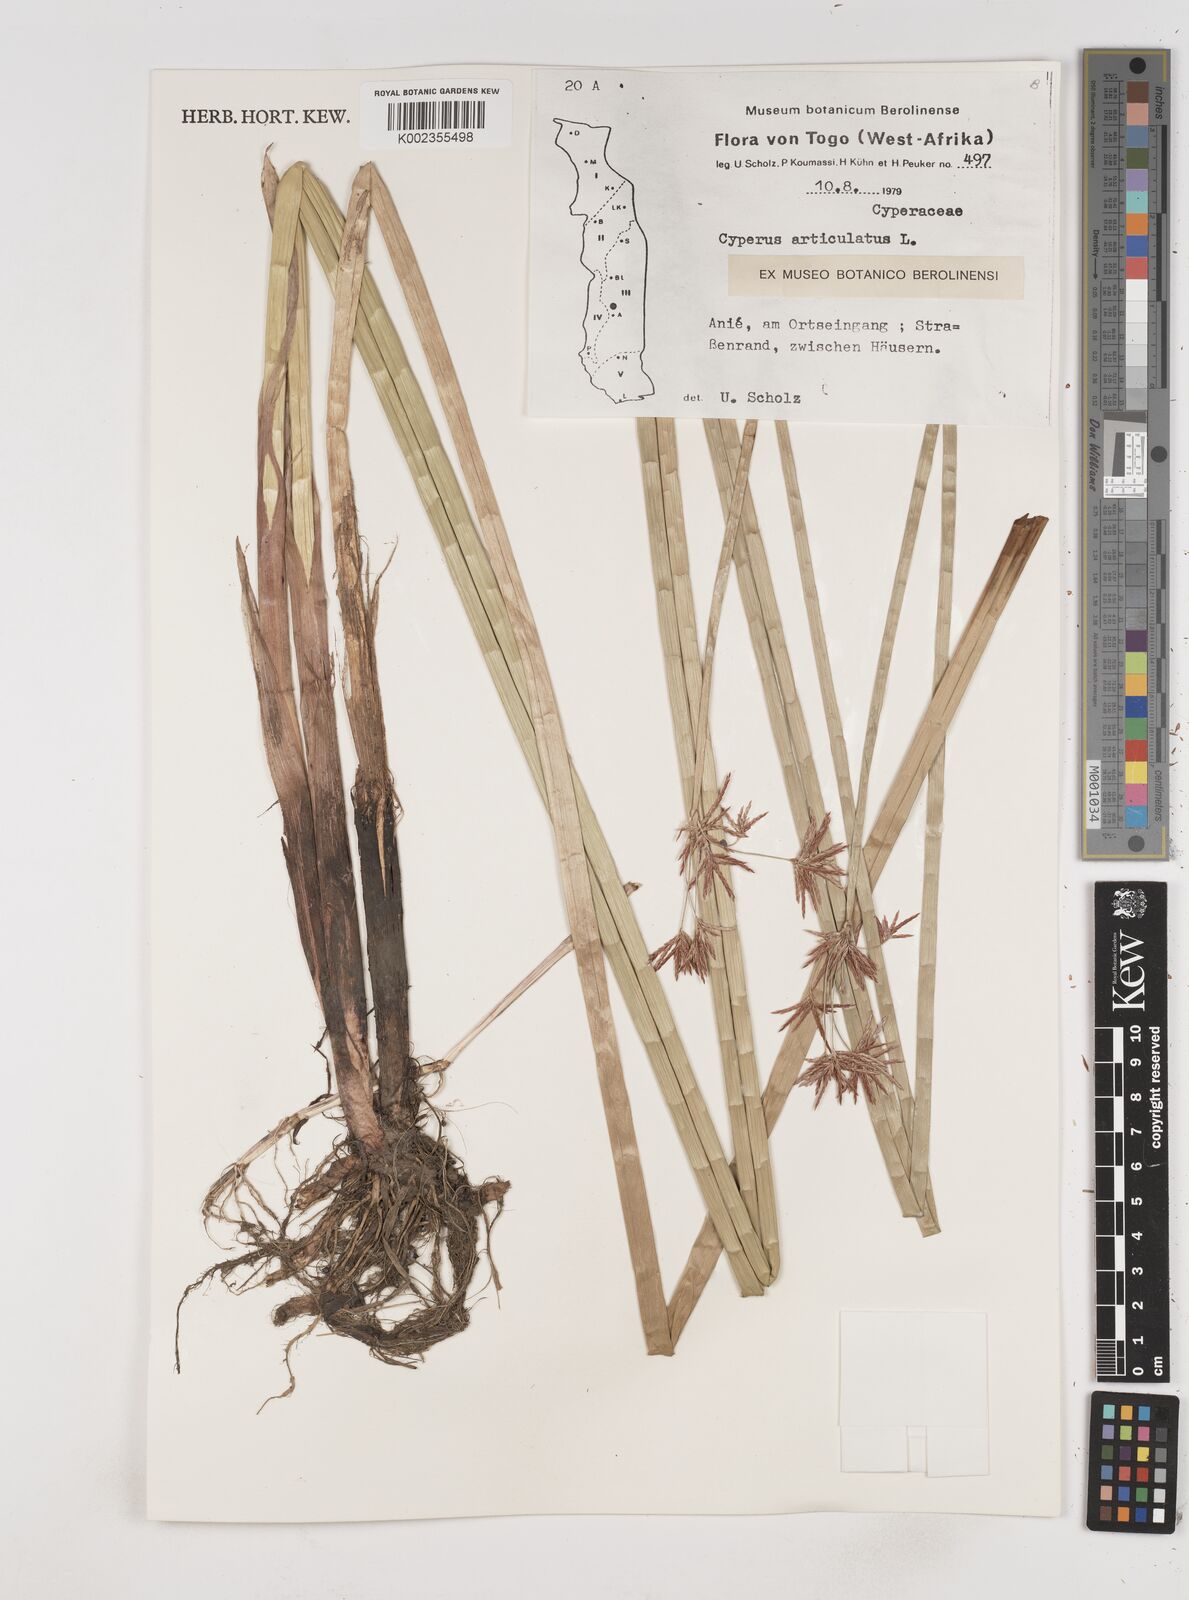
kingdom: Plantae
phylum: Tracheophyta
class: Liliopsida
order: Poales
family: Cyperaceae
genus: Cyperus
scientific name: Cyperus articulatus
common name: Jointed flatsedge
